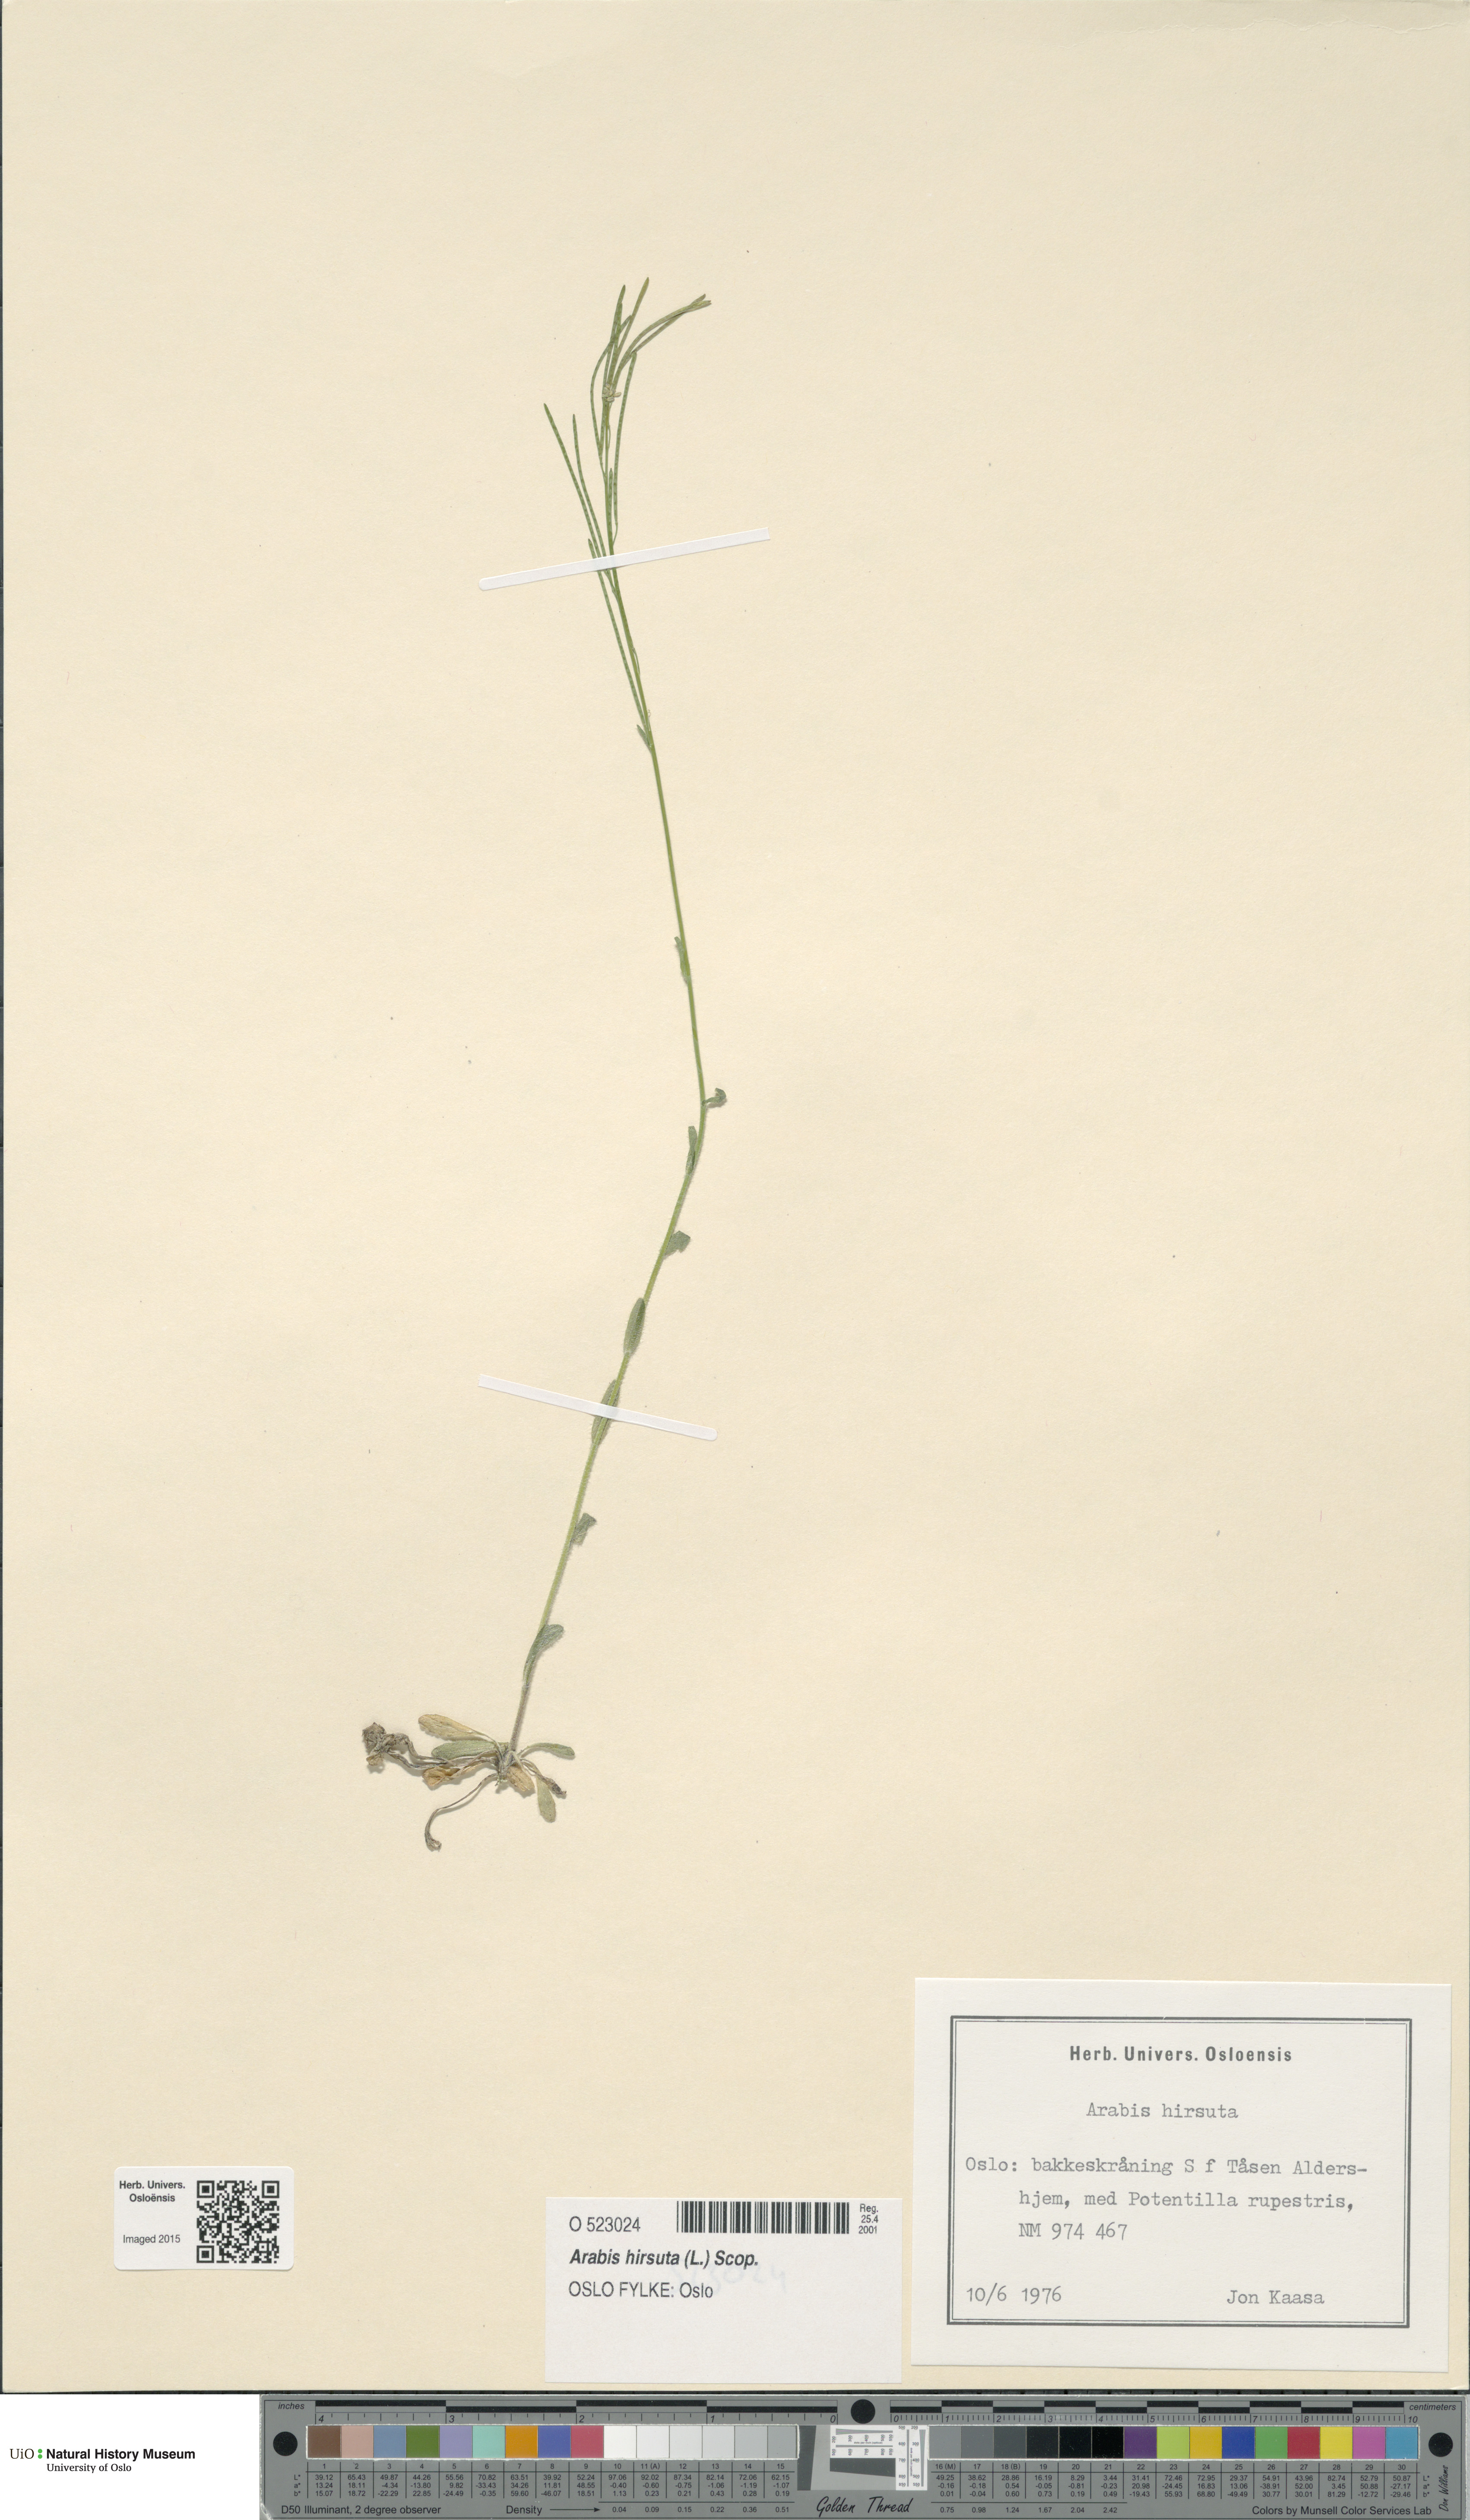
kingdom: Plantae
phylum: Tracheophyta
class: Magnoliopsida
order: Brassicales
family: Brassicaceae
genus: Arabis
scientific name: Arabis hirsuta
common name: Hairy rock-cress
